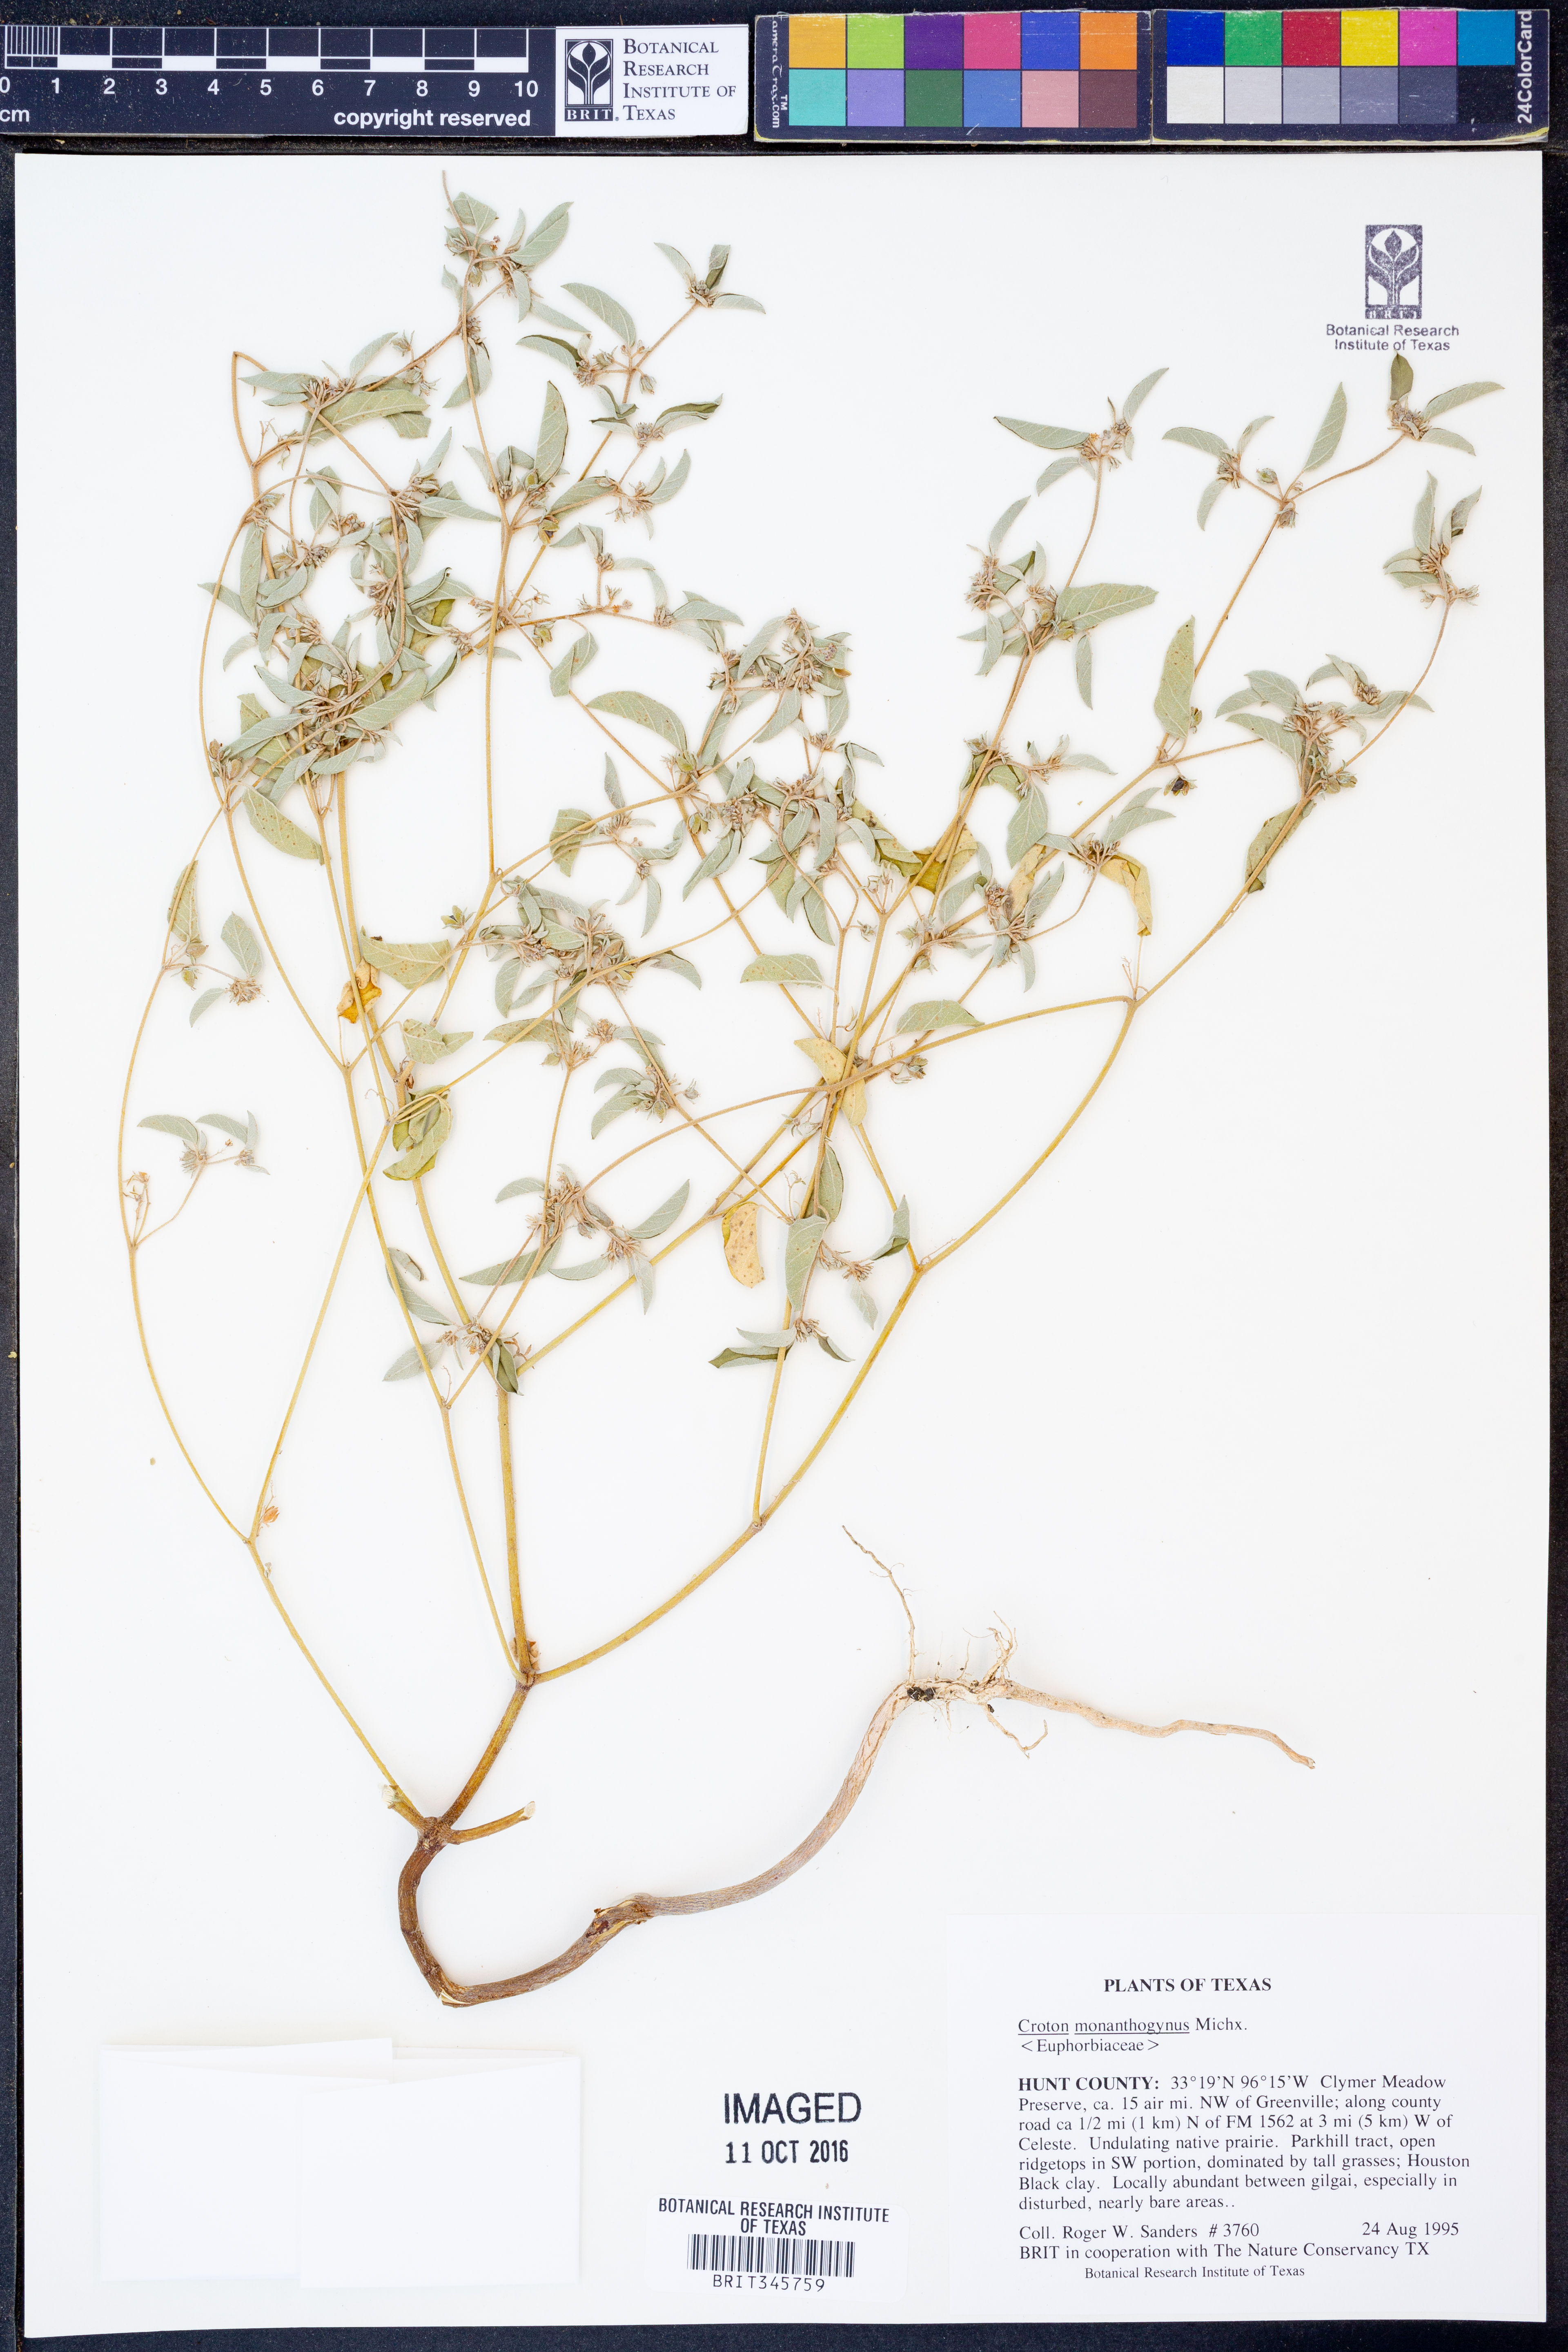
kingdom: Plantae
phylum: Tracheophyta
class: Magnoliopsida
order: Malpighiales
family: Euphorbiaceae
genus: Croton
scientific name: Croton monanthogynus
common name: One-seed croton
